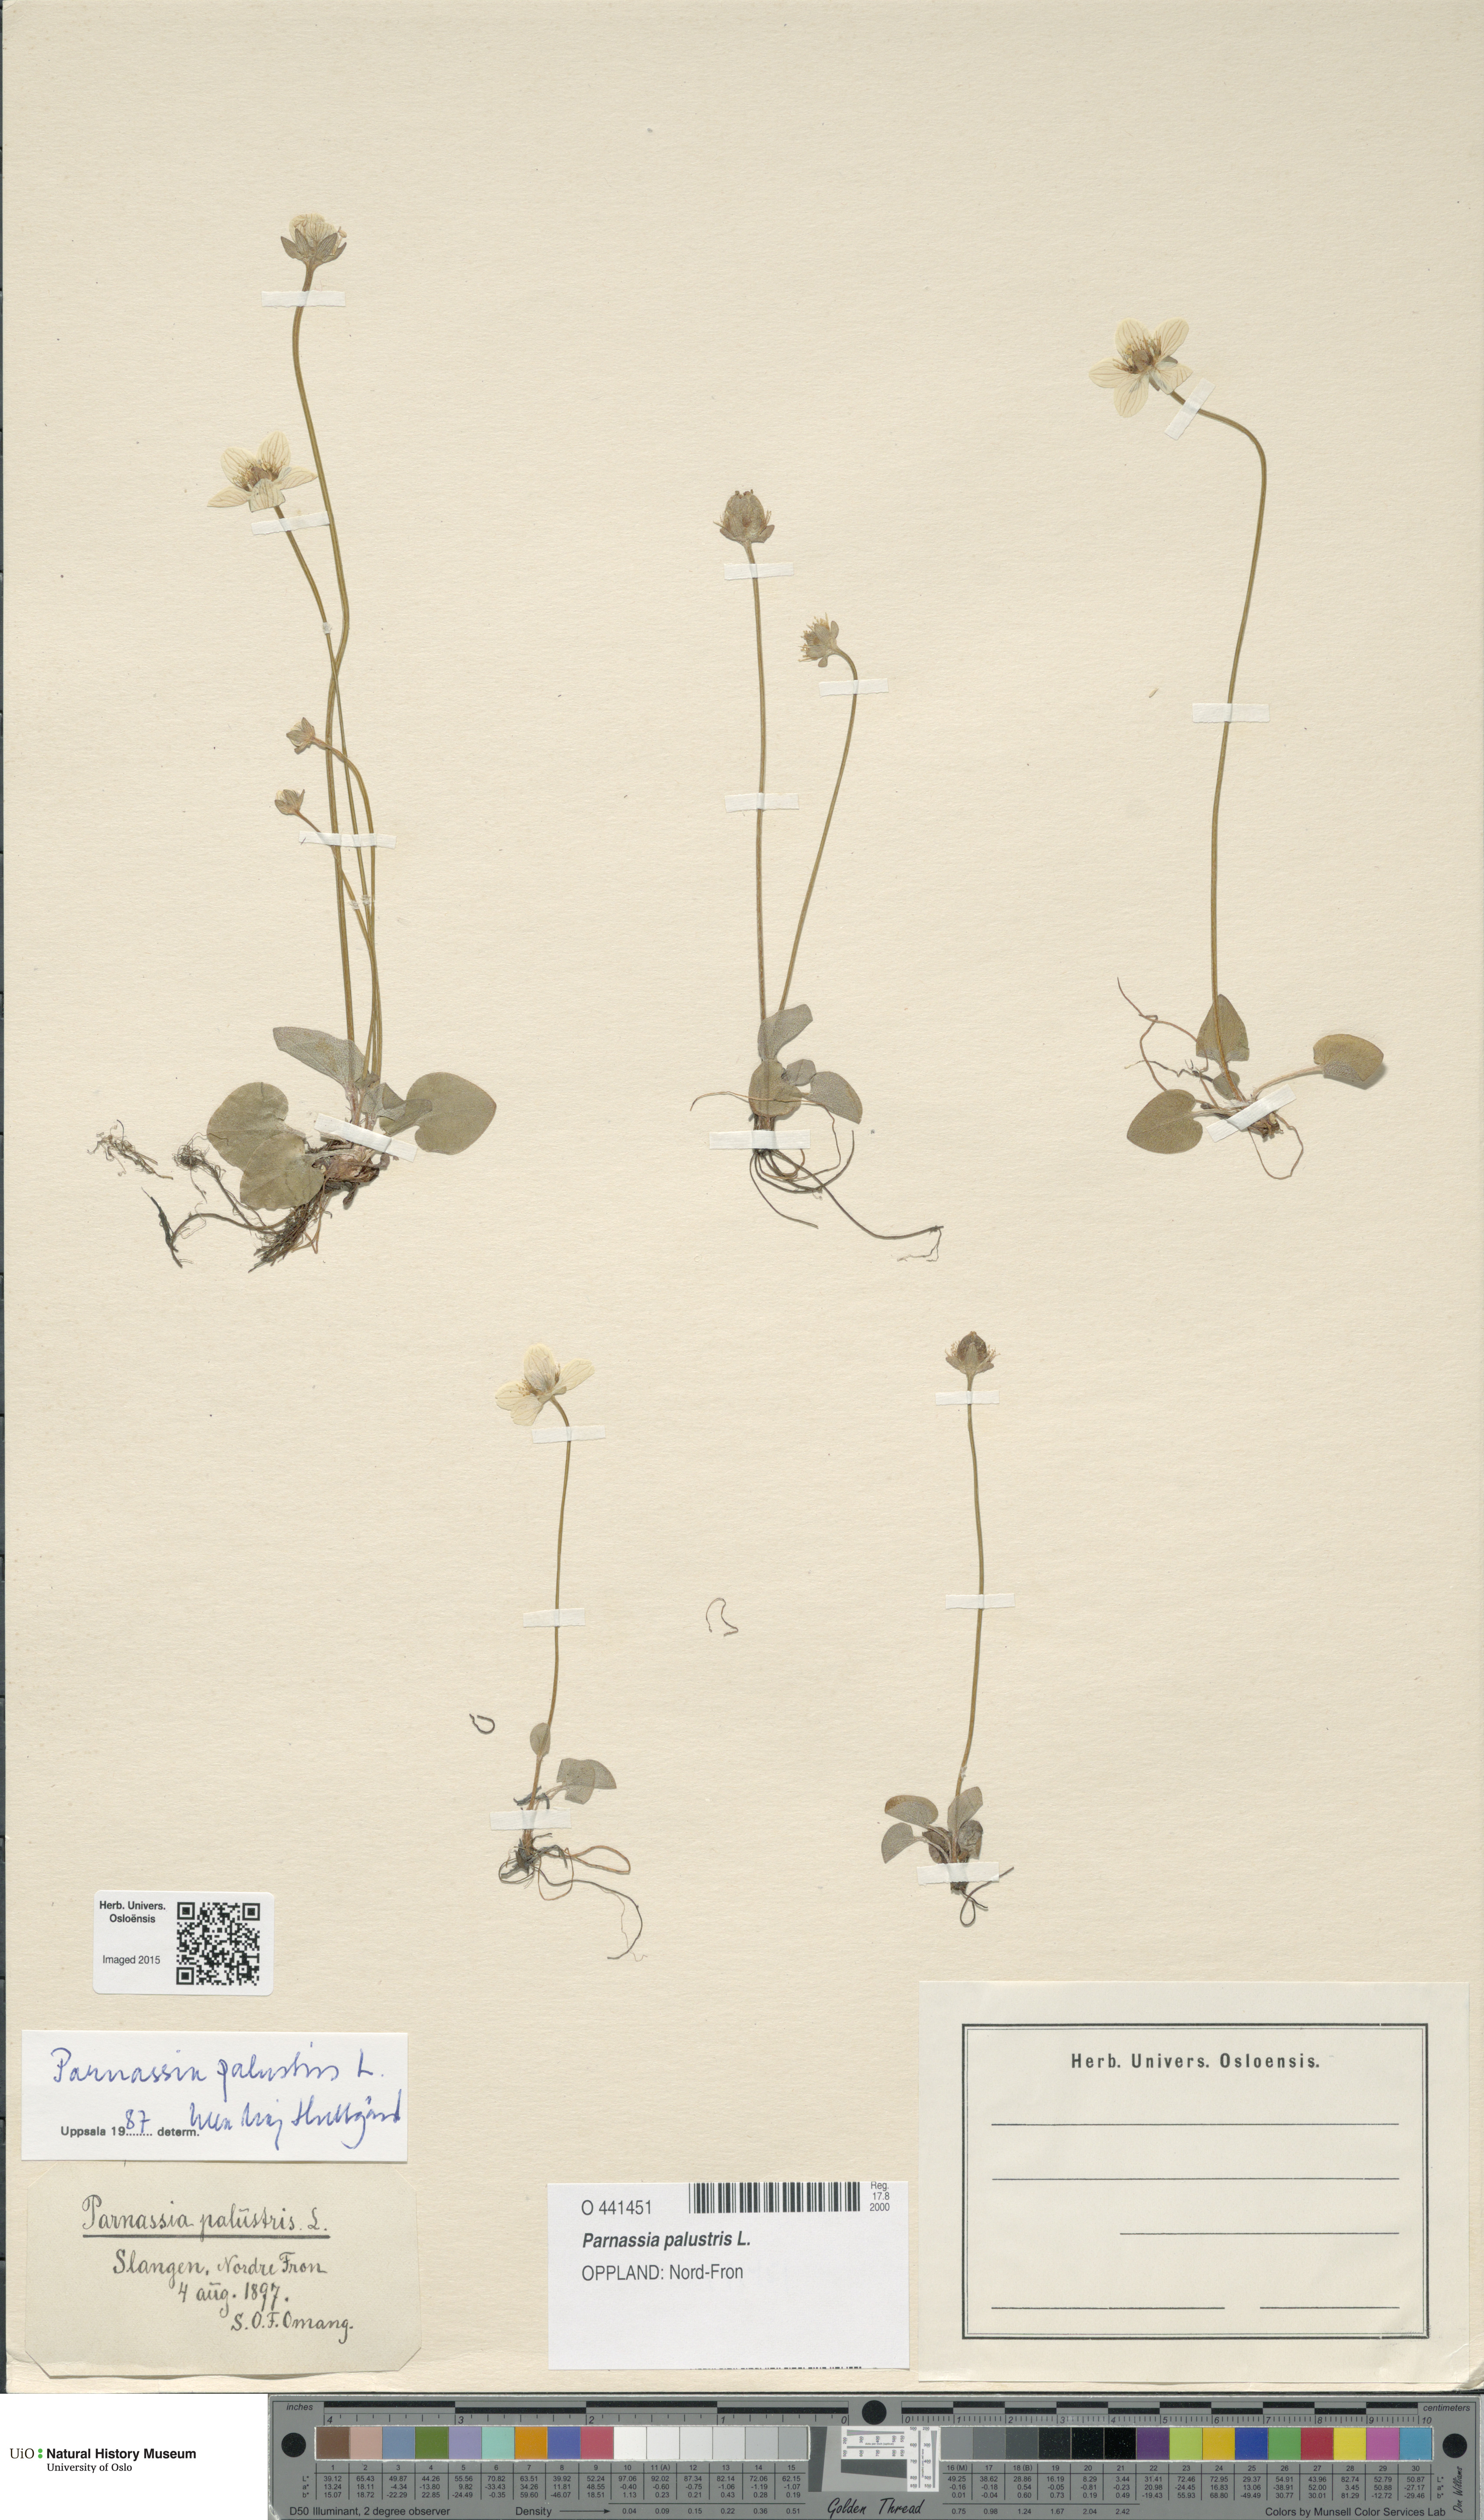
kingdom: Plantae
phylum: Tracheophyta
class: Magnoliopsida
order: Celastrales
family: Parnassiaceae
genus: Parnassia
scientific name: Parnassia palustris
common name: Grass-of-parnassus
